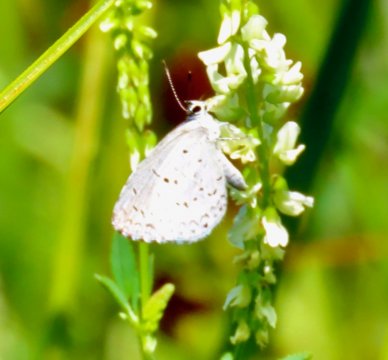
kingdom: Animalia
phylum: Arthropoda
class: Insecta
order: Lepidoptera
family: Lycaenidae
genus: Cyaniris
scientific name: Cyaniris neglecta
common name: Summer Azure
